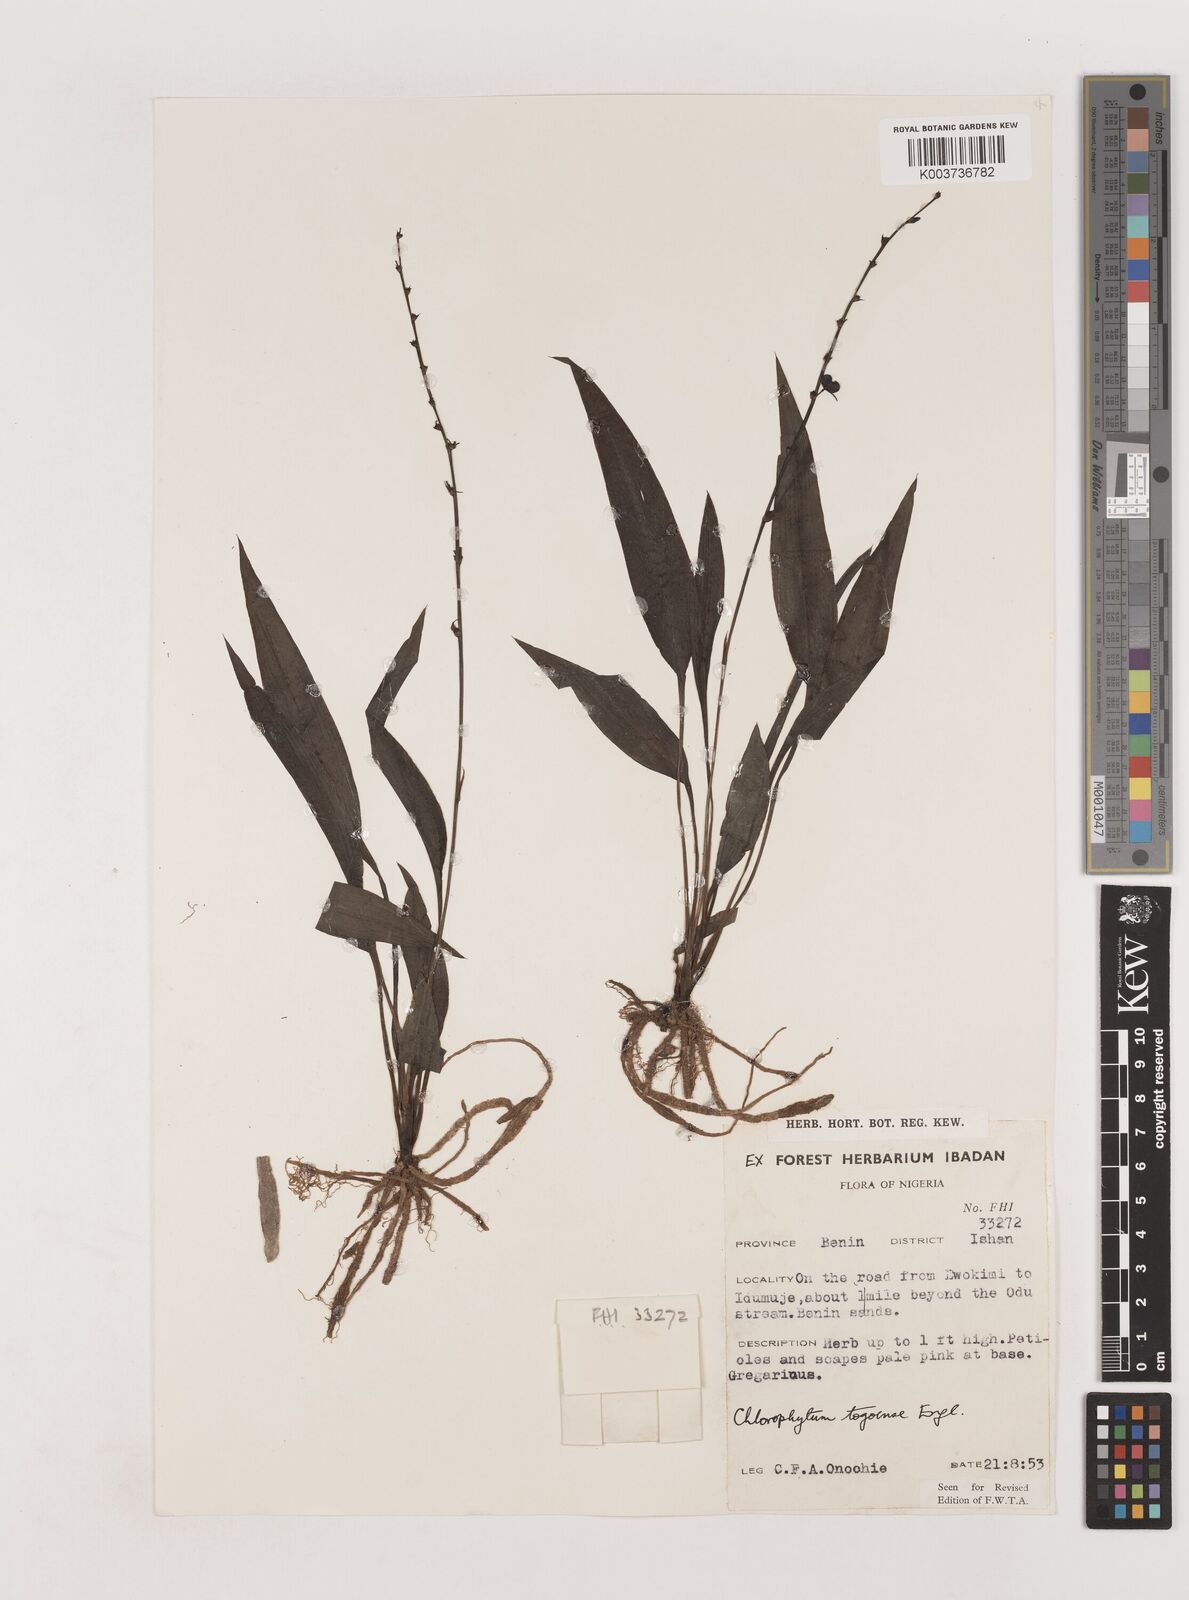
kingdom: Plantae
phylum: Tracheophyta
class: Liliopsida
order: Asparagales
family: Asparagaceae
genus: Chlorophytum
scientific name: Chlorophytum lancifolium
